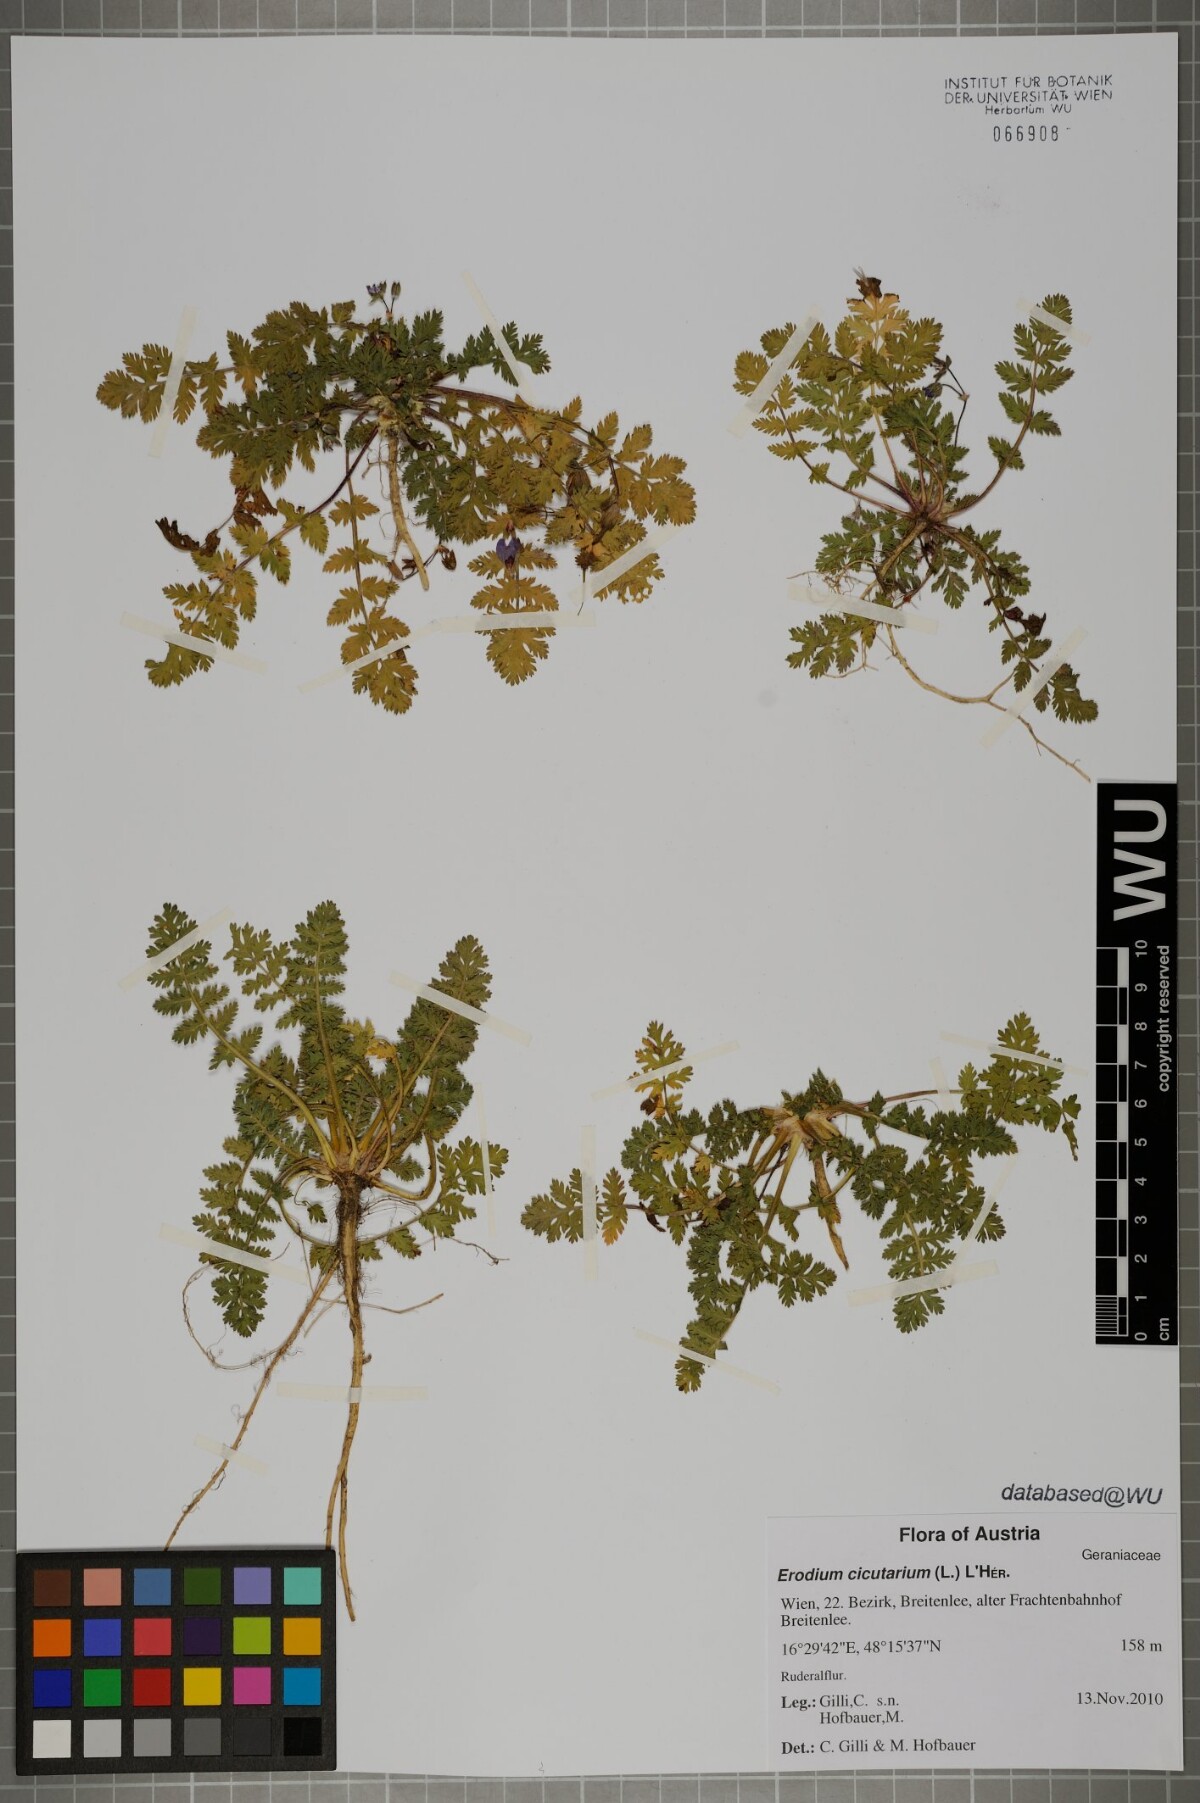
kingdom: Plantae
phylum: Tracheophyta
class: Magnoliopsida
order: Geraniales
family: Geraniaceae
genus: Erodium
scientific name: Erodium cicutarium
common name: Common stork's-bill
